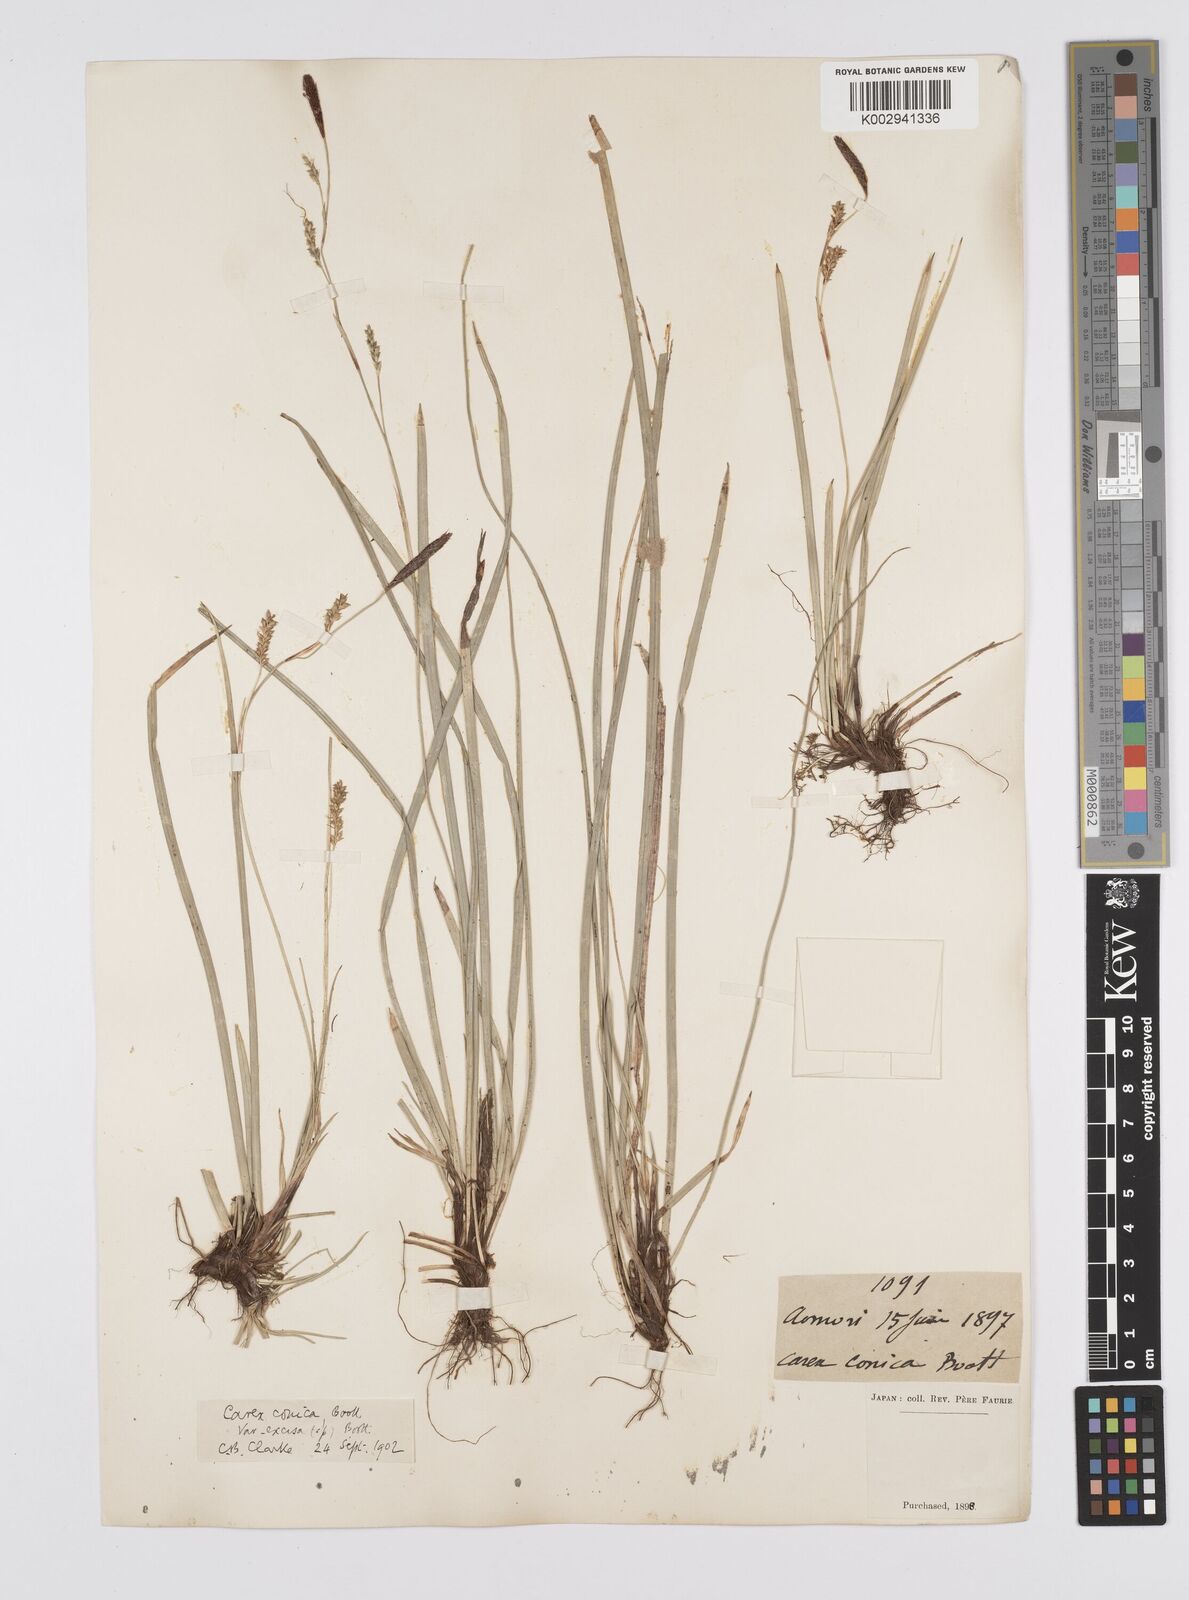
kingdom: Plantae
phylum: Tracheophyta
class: Liliopsida
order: Poales
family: Cyperaceae
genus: Carex
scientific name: Carex conica
